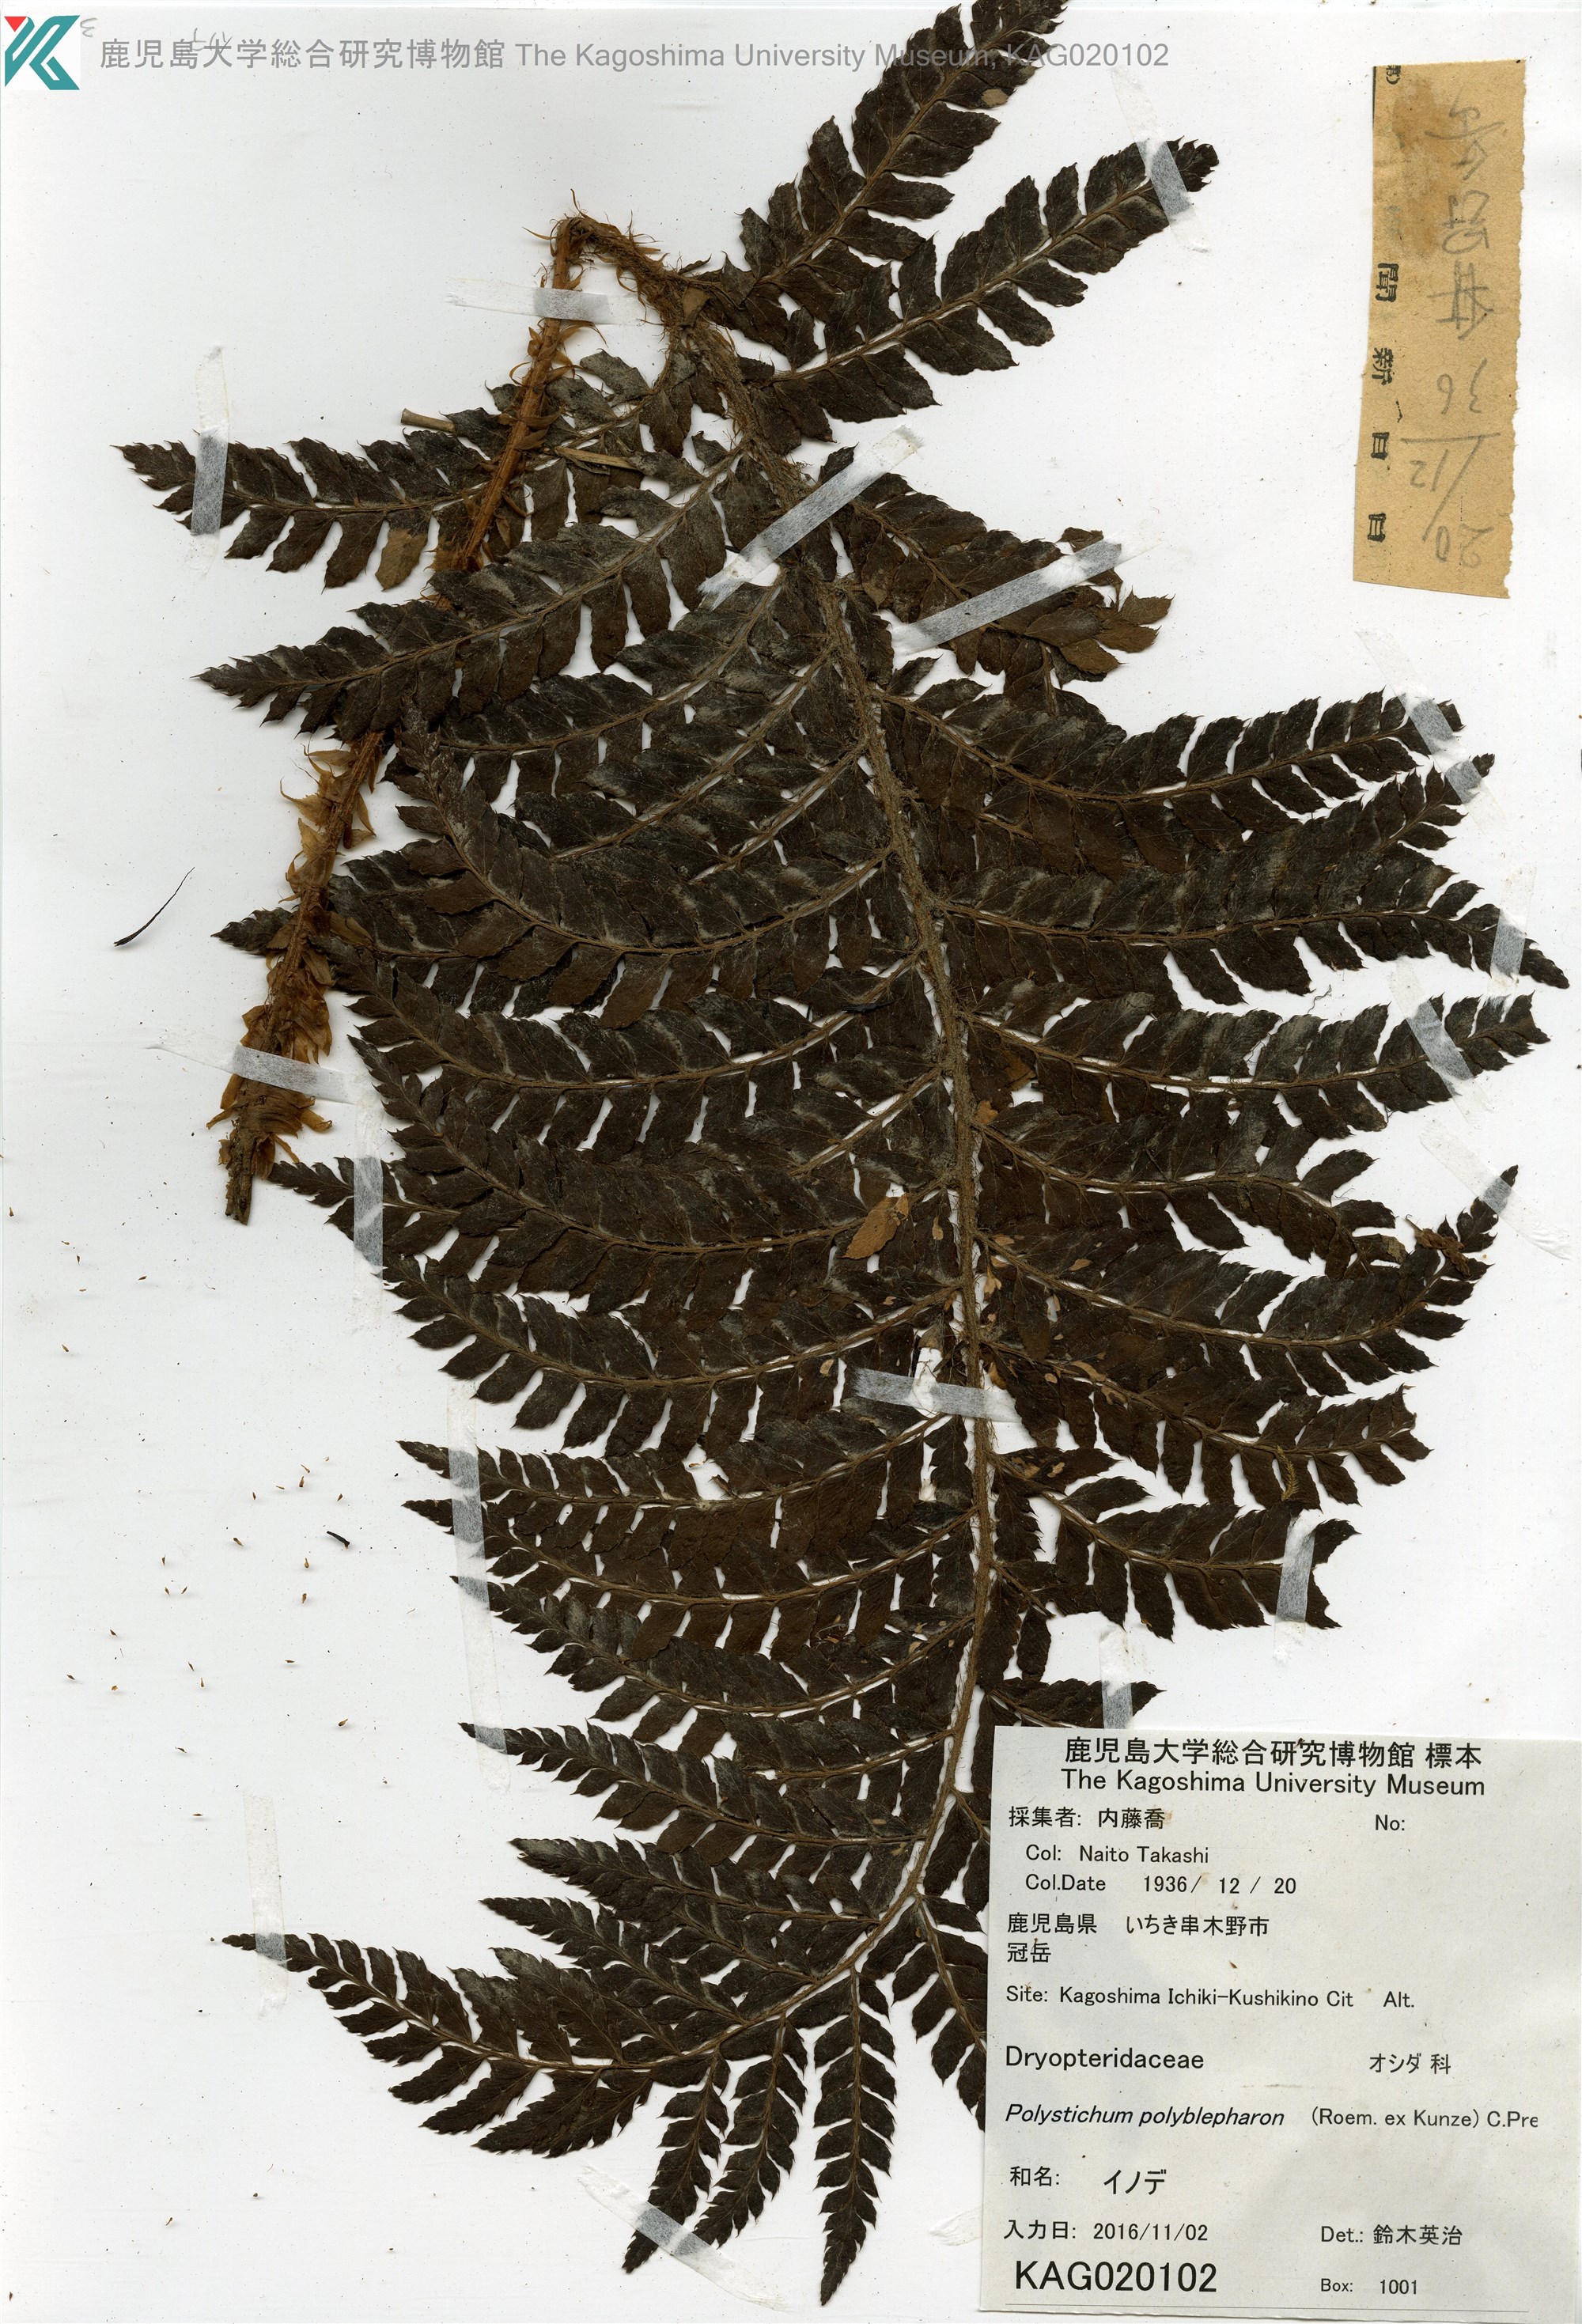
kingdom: Plantae
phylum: Tracheophyta
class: Polypodiopsida
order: Polypodiales
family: Dryopteridaceae
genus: Polystichum
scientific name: Polystichum polyblepharon
